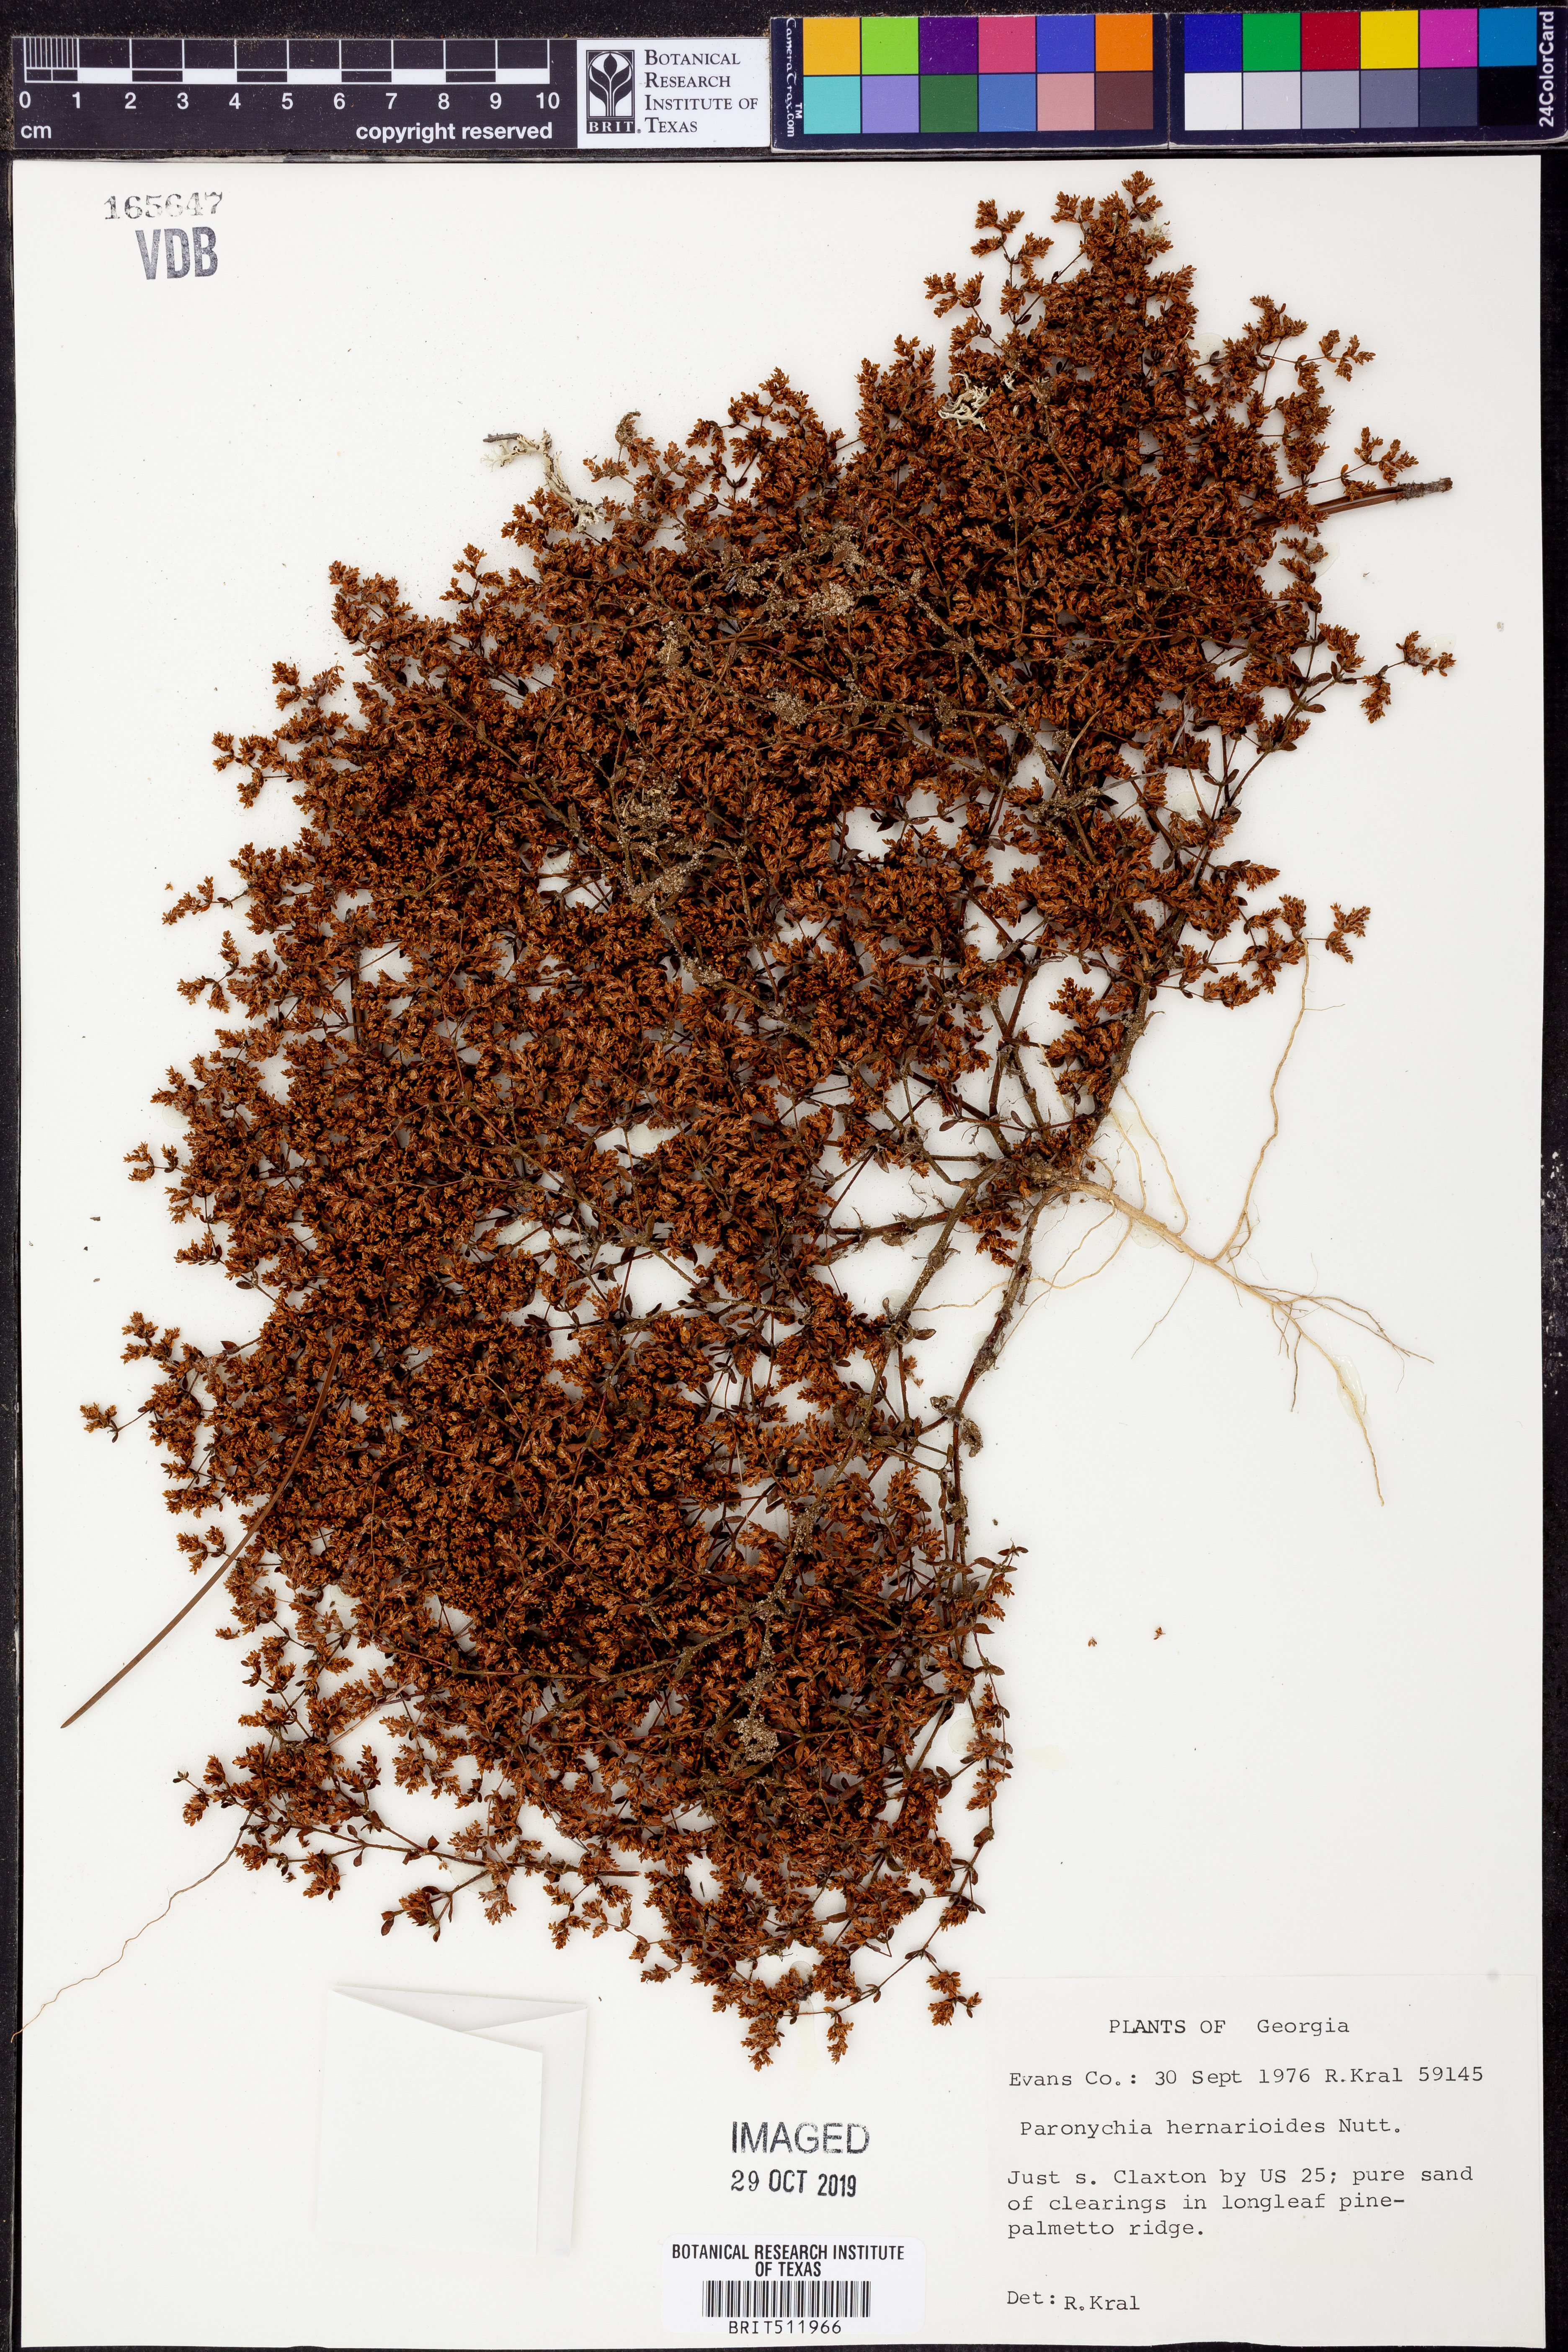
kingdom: Plantae
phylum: Tracheophyta
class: Magnoliopsida
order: Caryophyllales
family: Caryophyllaceae
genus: Paronychia
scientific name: Paronychia herniarioides
